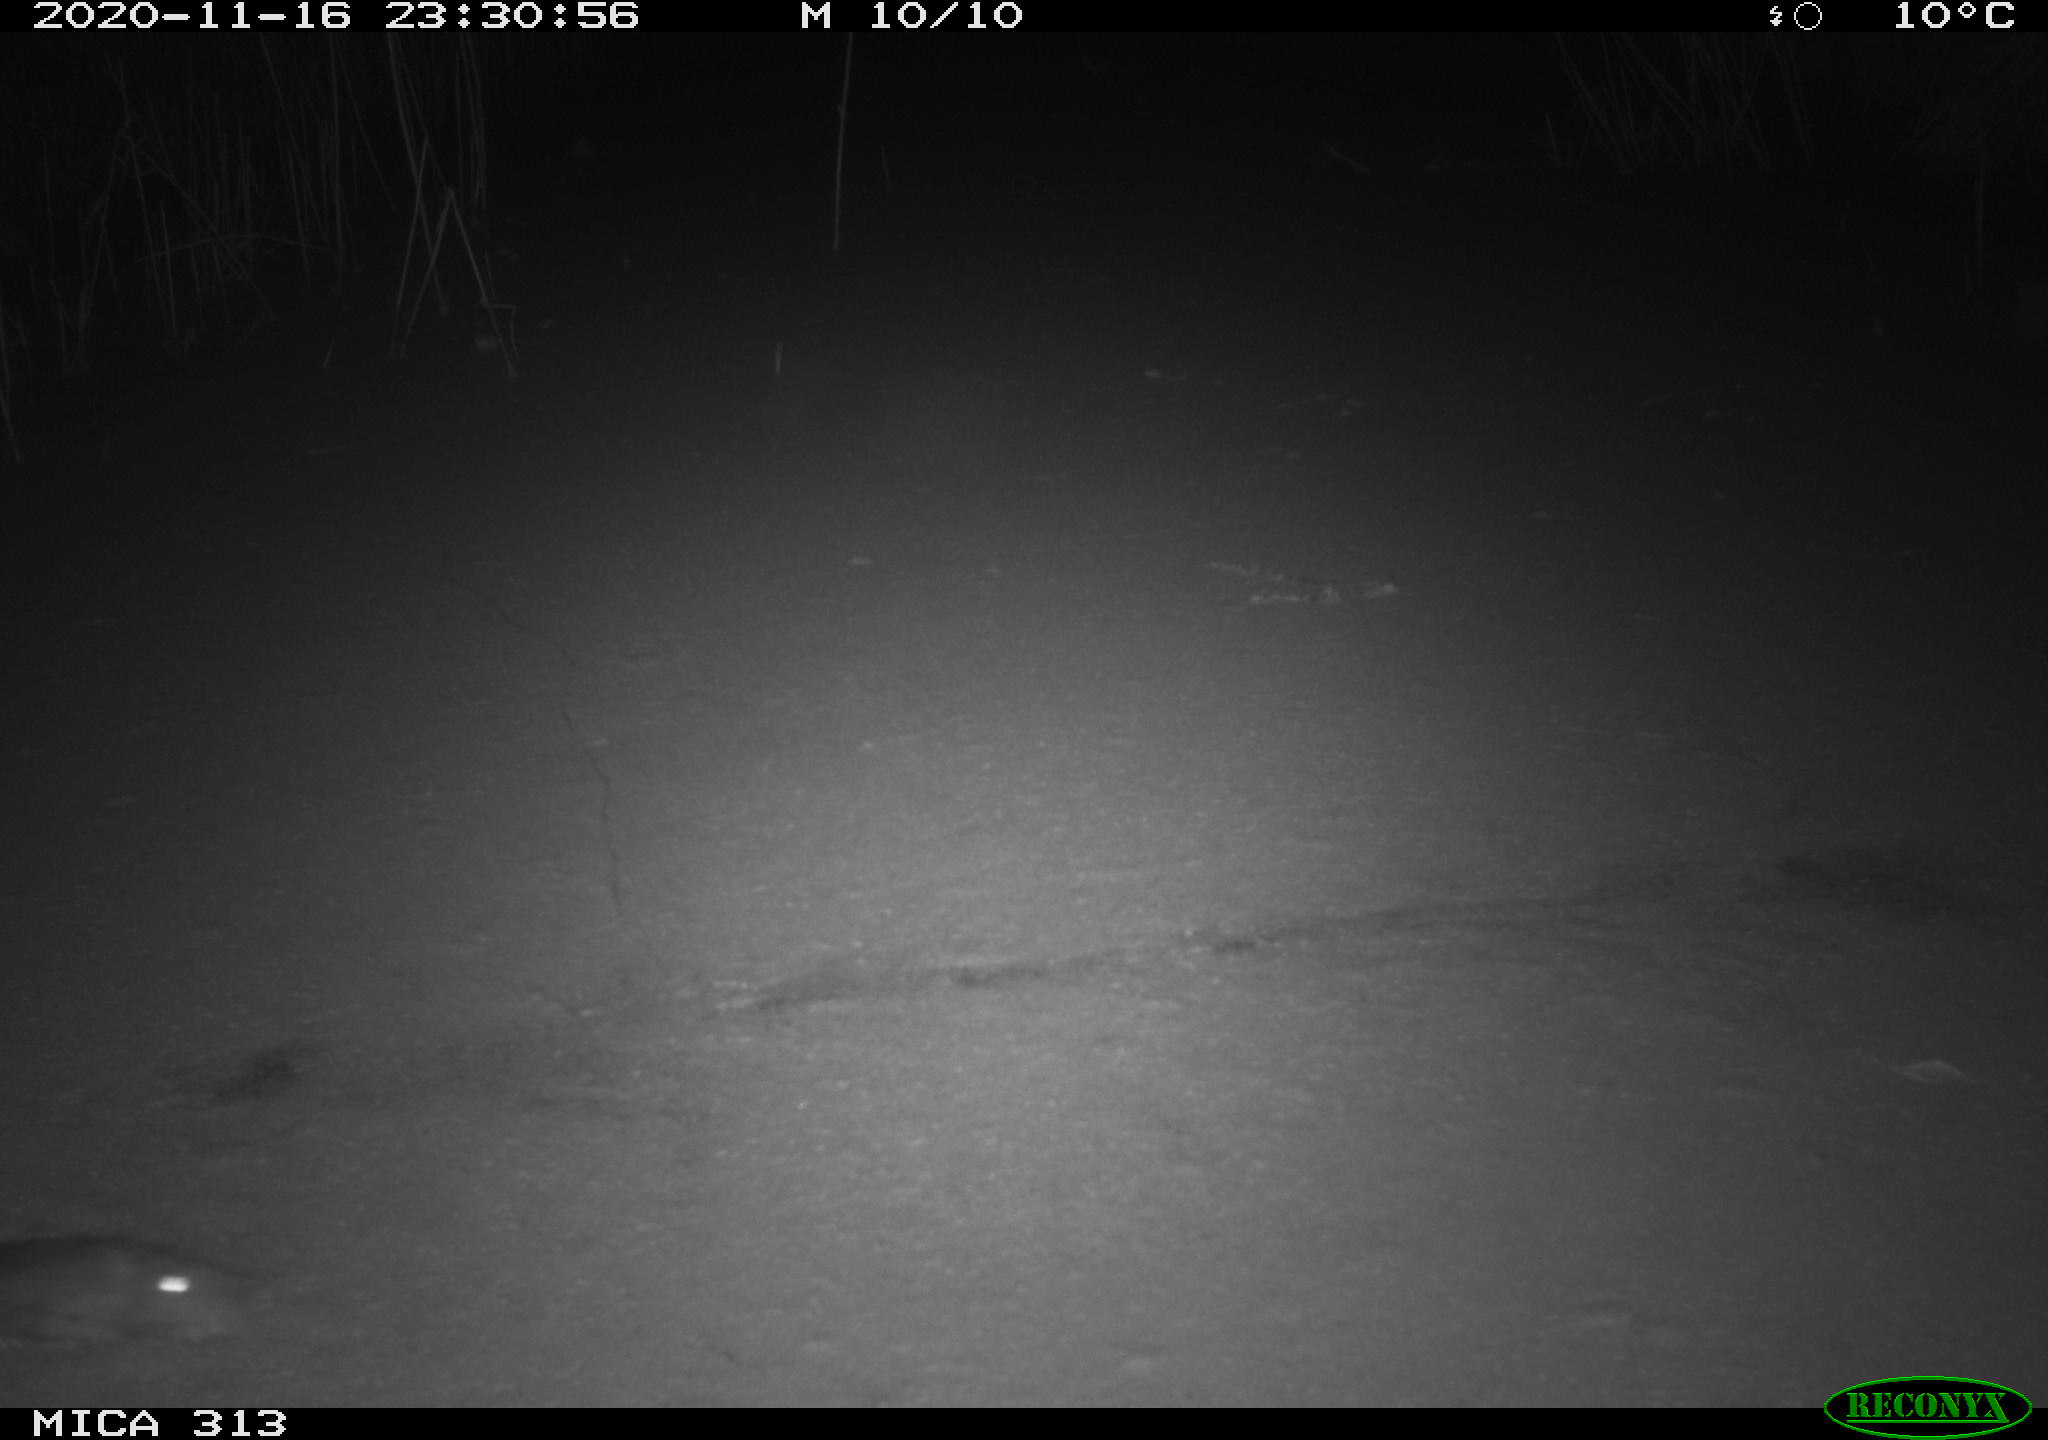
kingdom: Animalia
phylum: Chordata
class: Mammalia
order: Rodentia
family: Muridae
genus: Rattus
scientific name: Rattus norvegicus
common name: Brown rat
